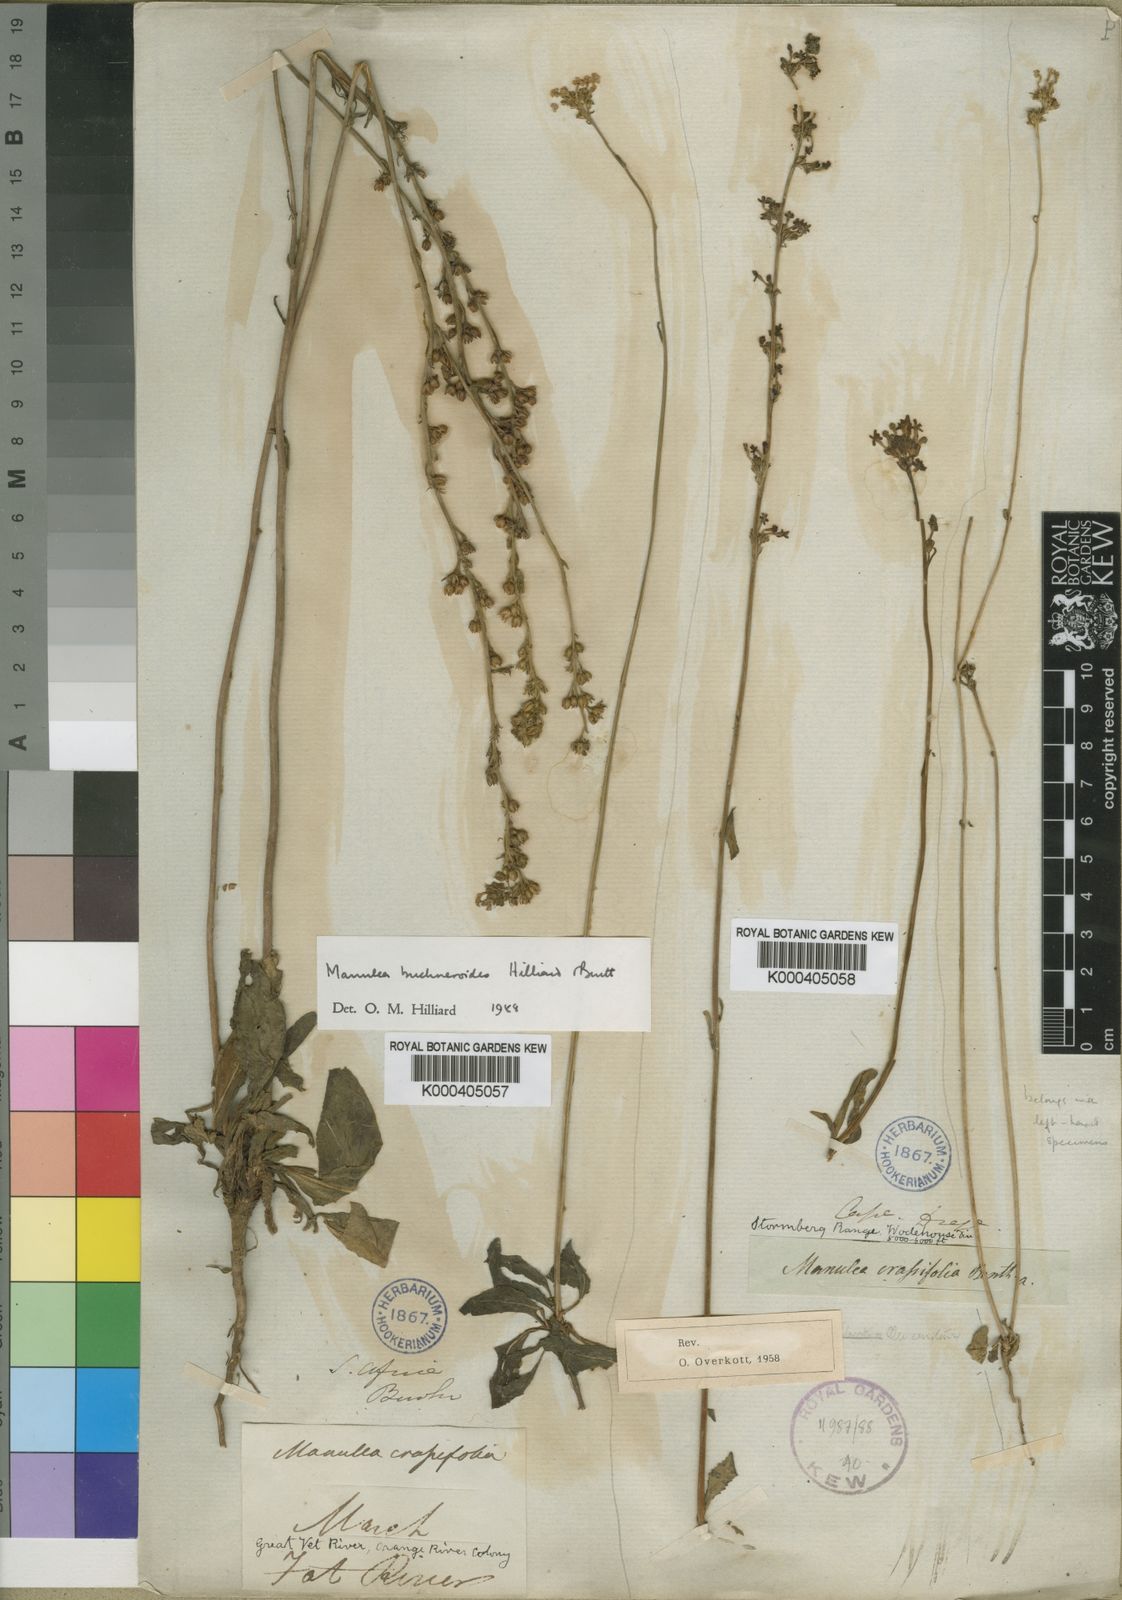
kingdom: Plantae
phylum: Tracheophyta
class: Magnoliopsida
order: Lamiales
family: Scrophulariaceae
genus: Manulea
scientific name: Manulea crassifolia
